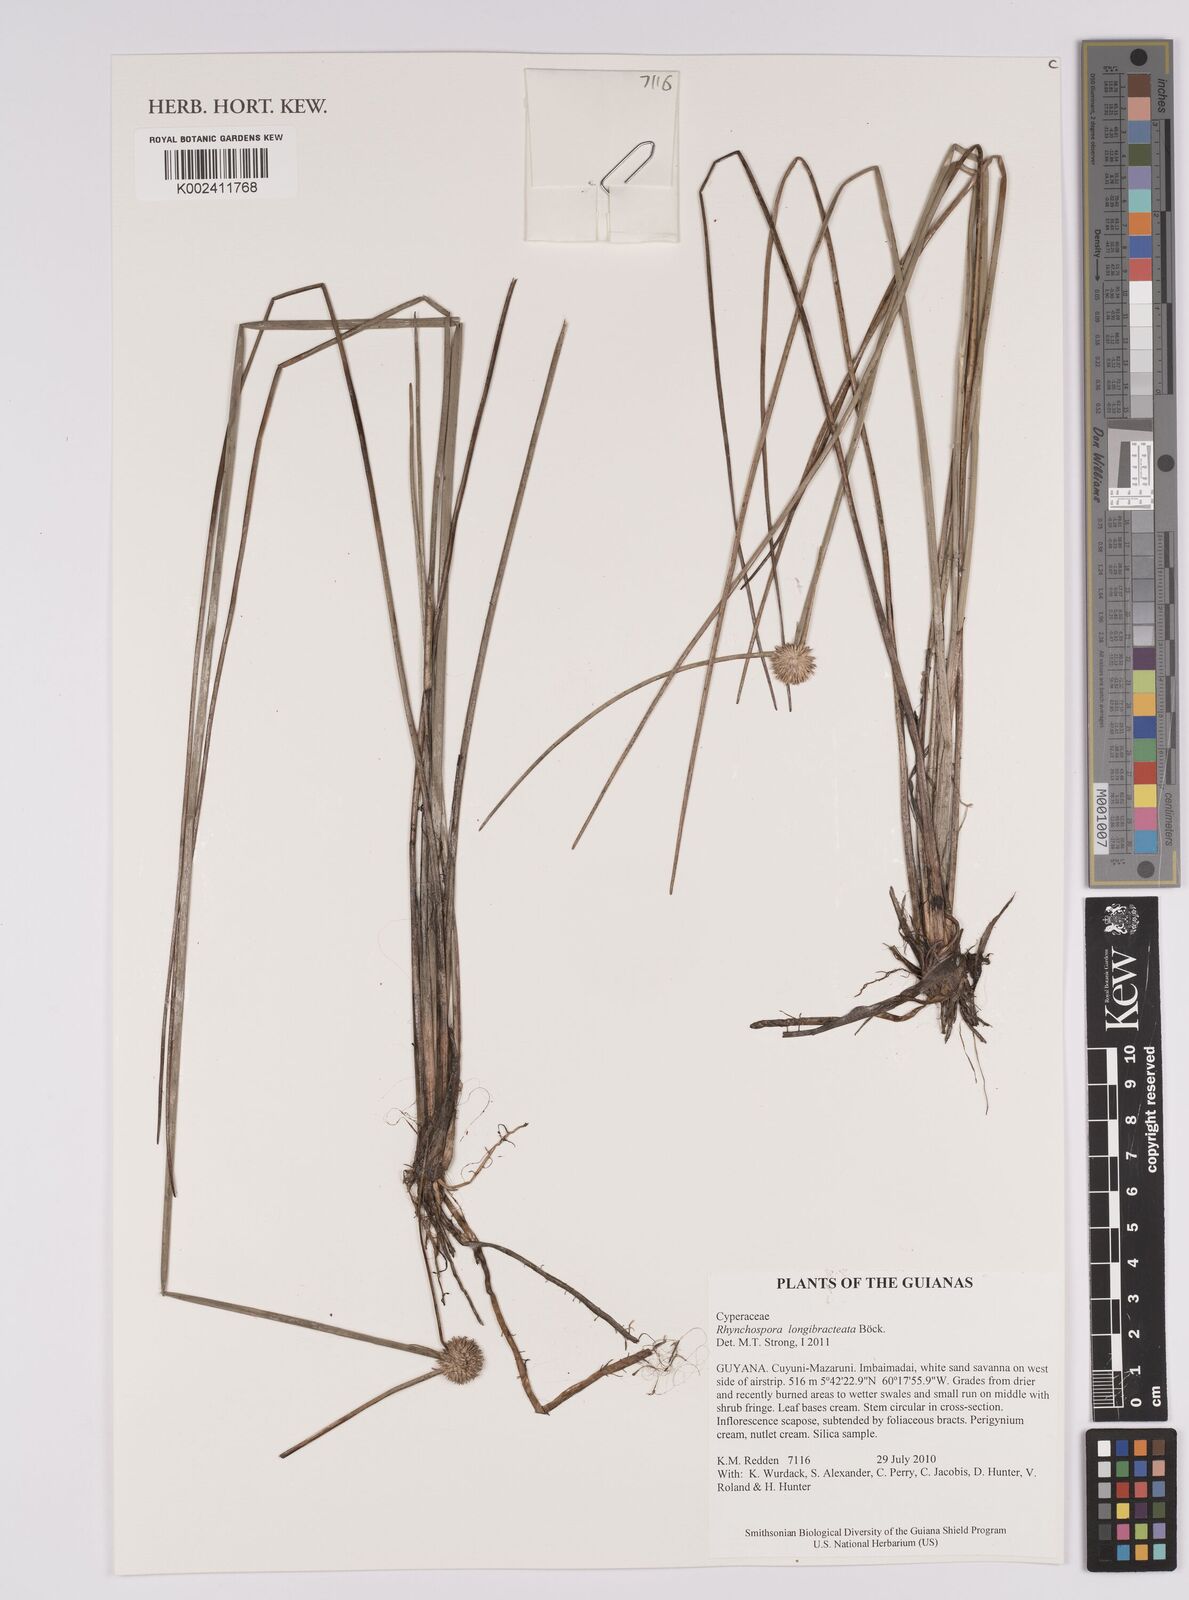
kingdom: Plantae
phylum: Tracheophyta
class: Liliopsida
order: Poales
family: Cyperaceae
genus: Rhynchospora
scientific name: Rhynchospora longibracteata
